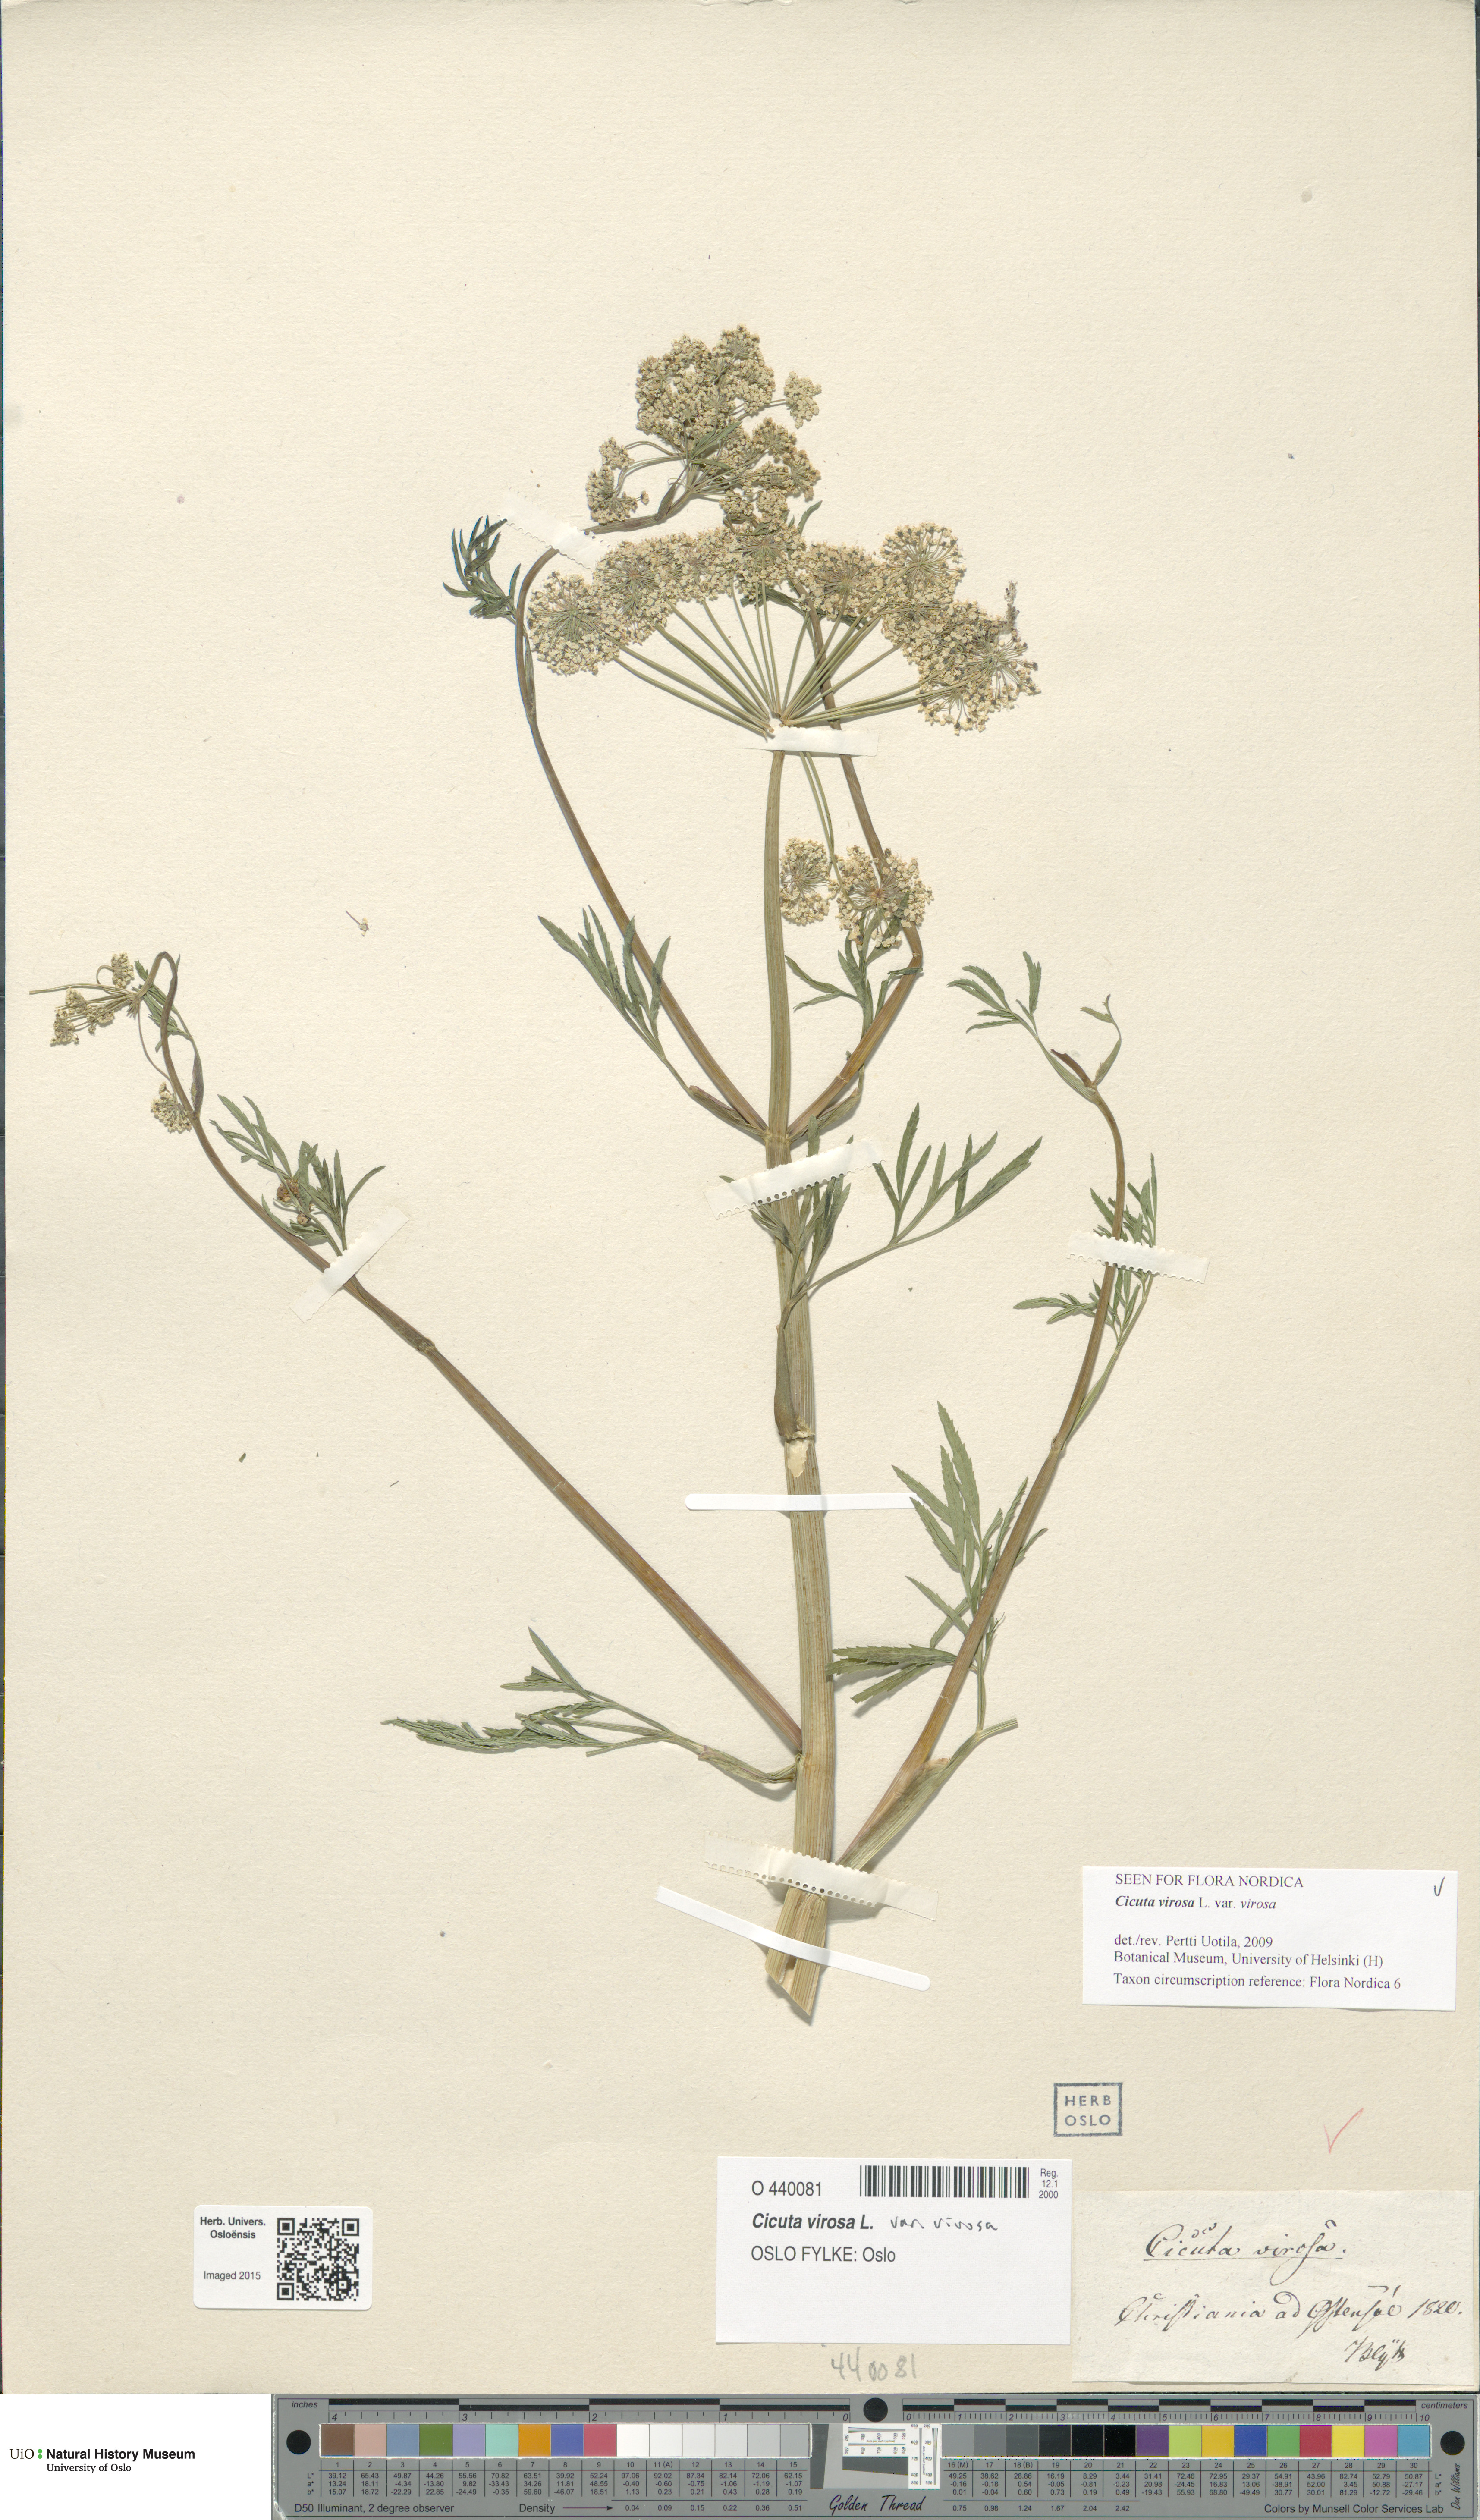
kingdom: Plantae
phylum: Tracheophyta
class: Magnoliopsida
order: Apiales
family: Apiaceae
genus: Cicuta
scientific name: Cicuta virosa
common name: Cowbane
